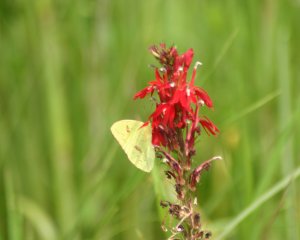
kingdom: Animalia
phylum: Arthropoda
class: Insecta
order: Lepidoptera
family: Pieridae
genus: Phoebis
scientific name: Phoebis sennae
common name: Cloudless Sulphur
